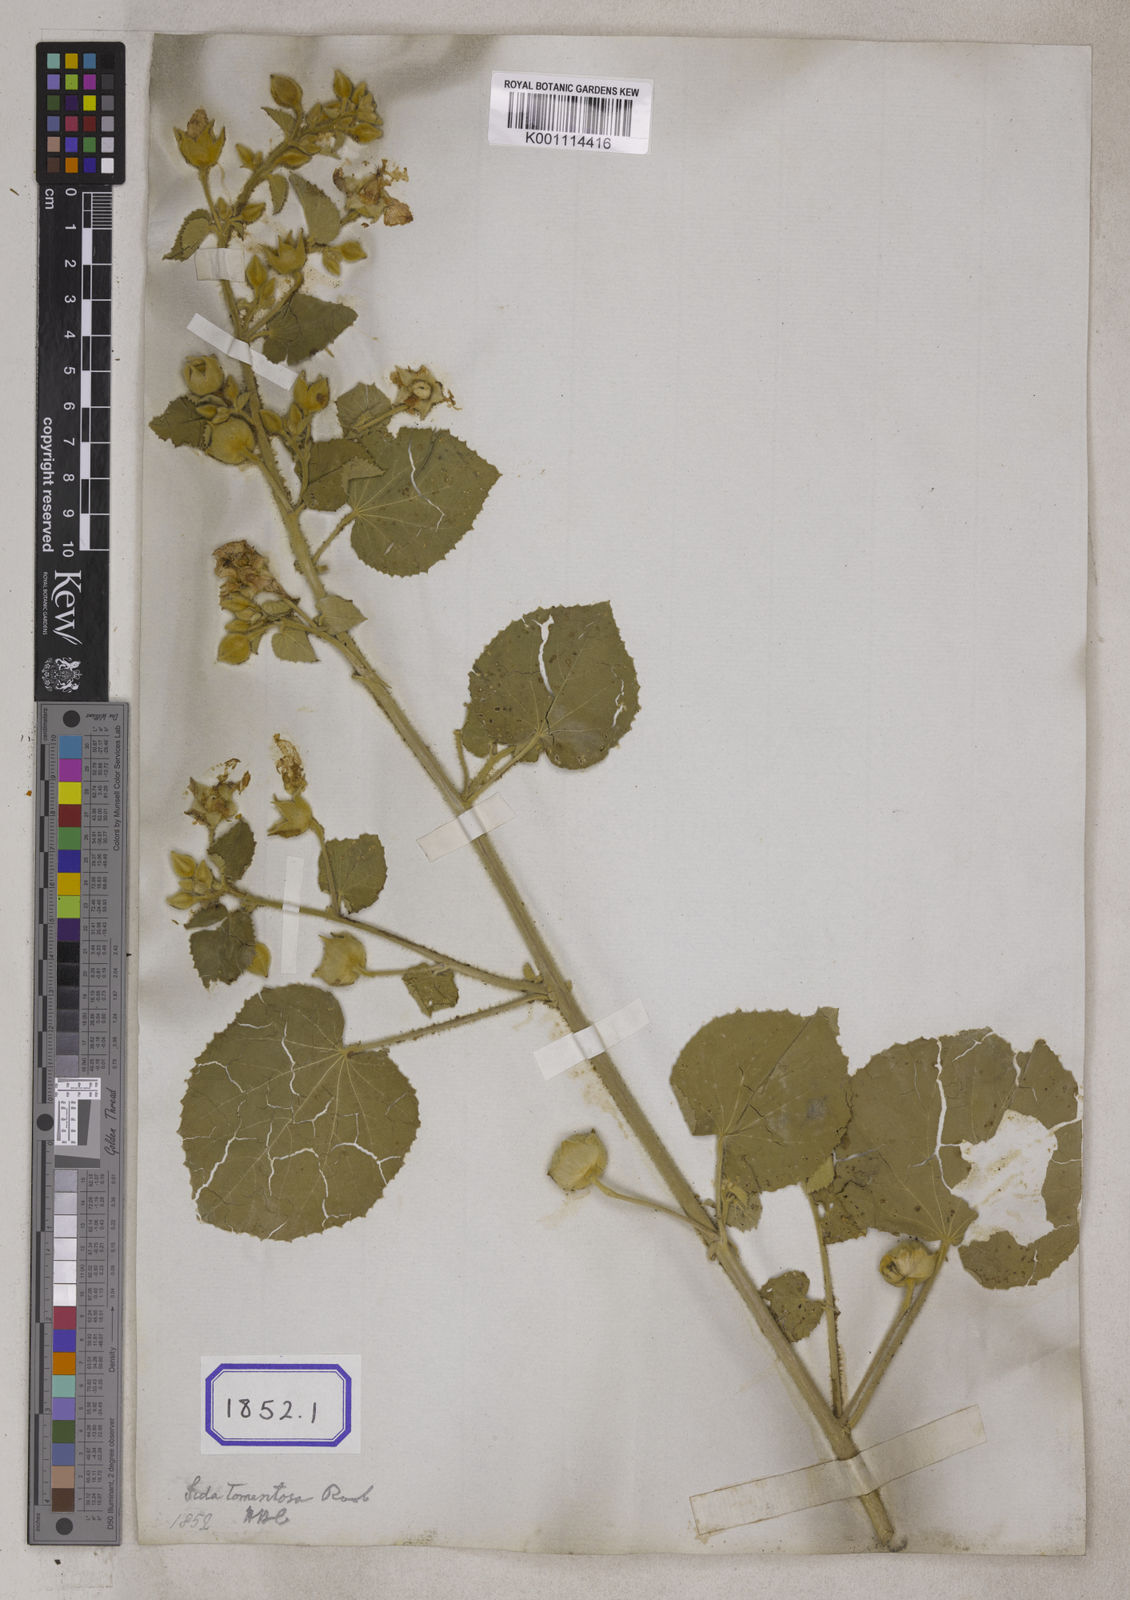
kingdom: Plantae
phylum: Tracheophyta
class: Magnoliopsida
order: Malvales
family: Malvaceae
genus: Abutilon
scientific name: Abutilon pannosum
